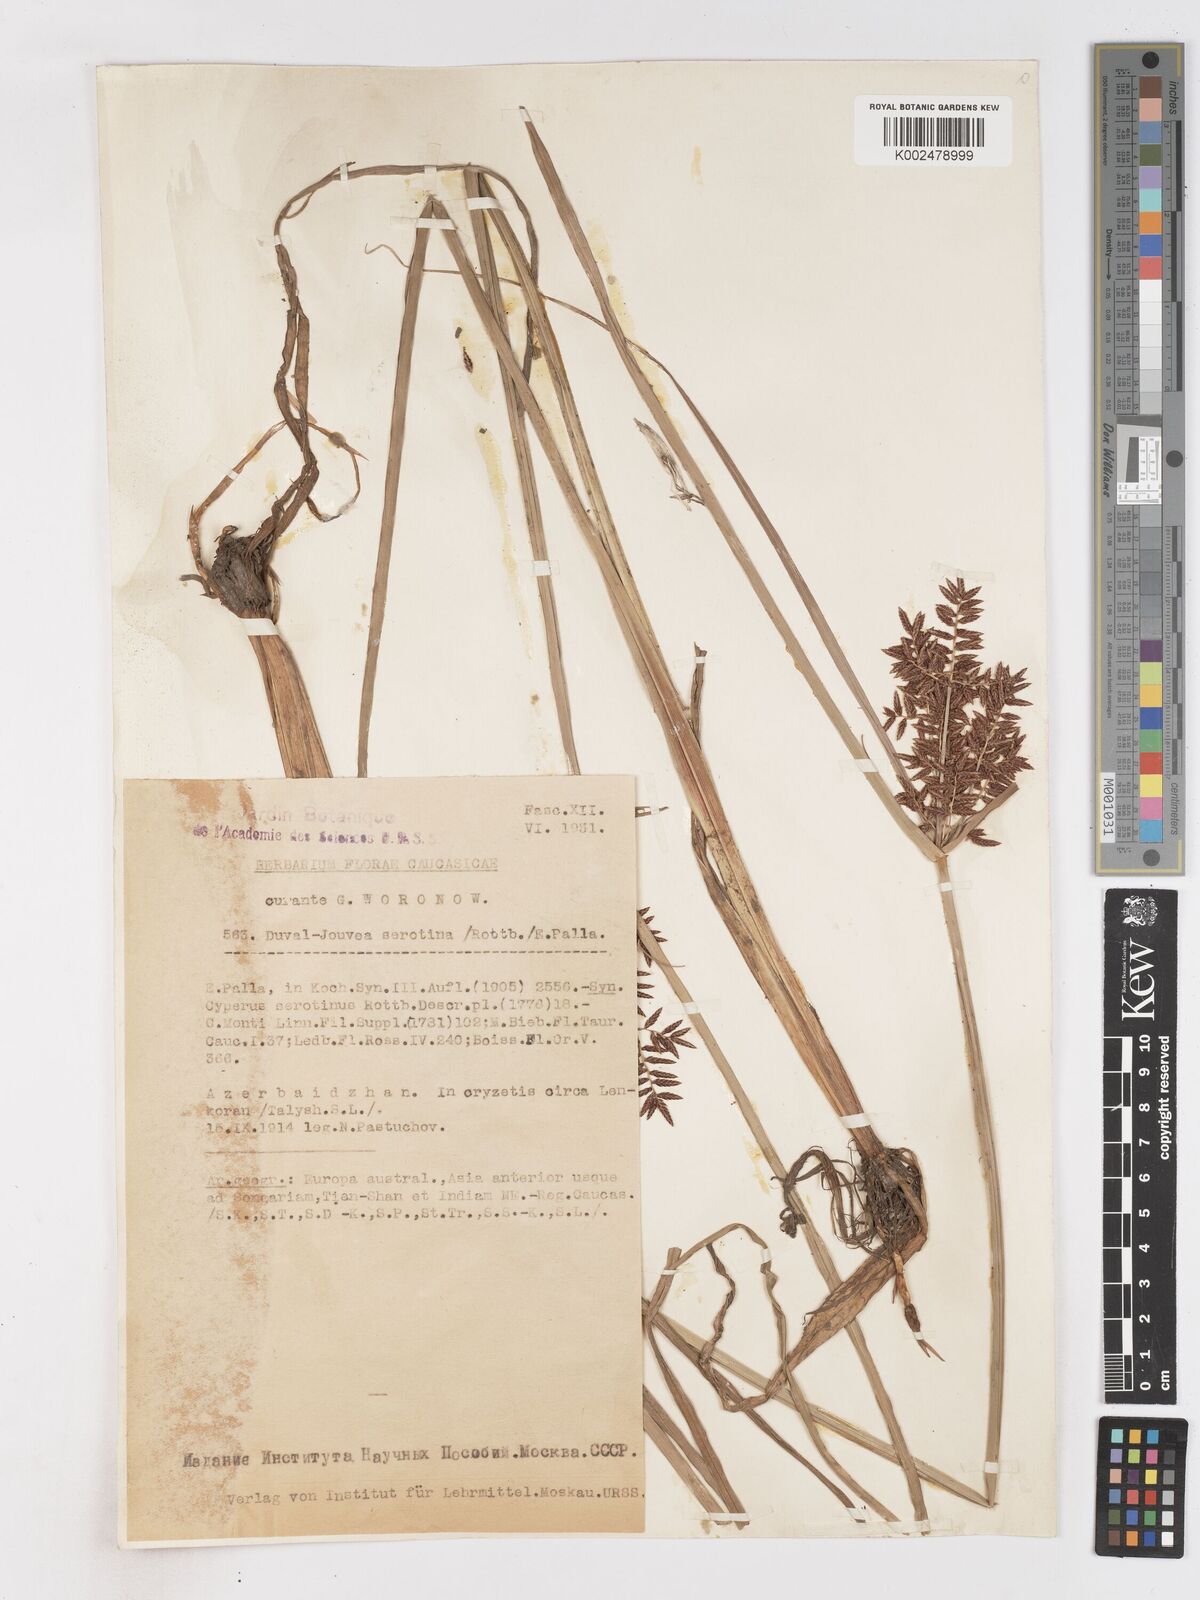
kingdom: Plantae
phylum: Tracheophyta
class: Liliopsida
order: Poales
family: Cyperaceae
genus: Cyperus
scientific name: Cyperus serotinus
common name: Tidalmarsh flatsedge
